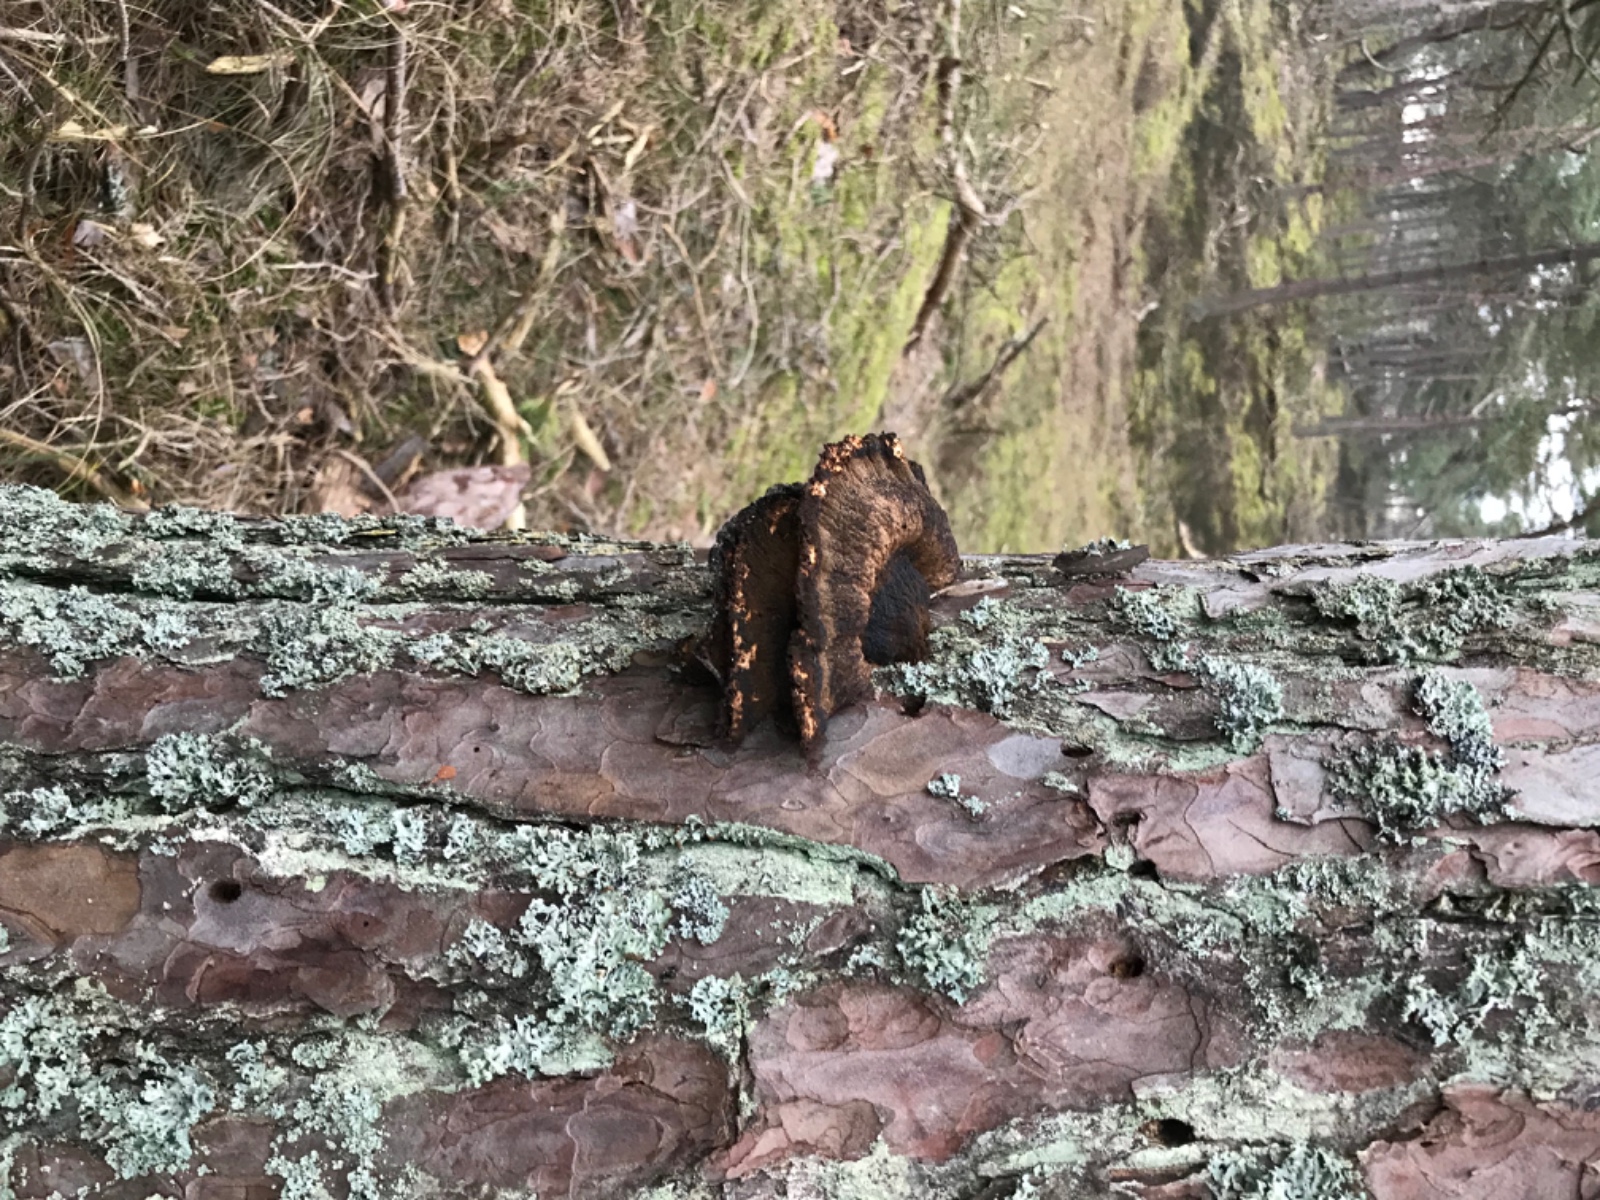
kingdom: Fungi
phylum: Basidiomycota
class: Agaricomycetes
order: Polyporales
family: Ischnodermataceae
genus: Ischnoderma
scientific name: Ischnoderma benzoinum
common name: gran-tjæreporesvamp
